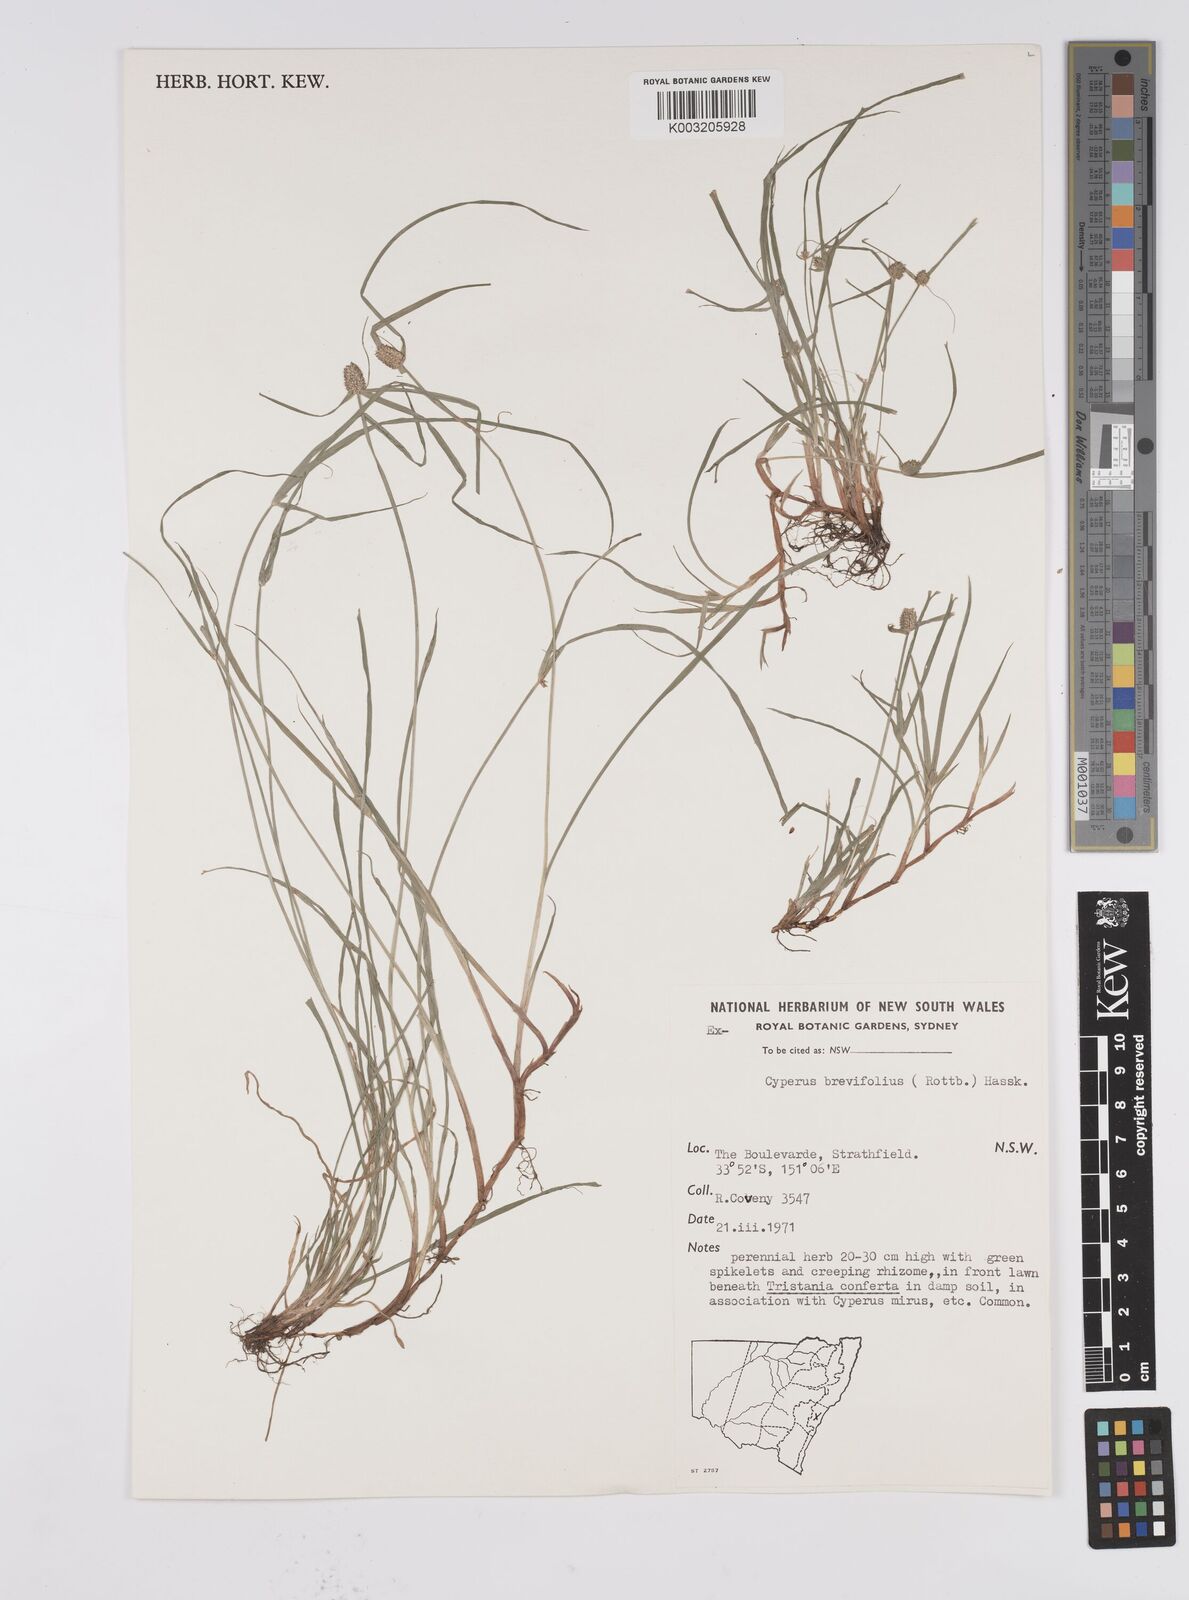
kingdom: Plantae
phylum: Tracheophyta
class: Liliopsida
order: Poales
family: Cyperaceae
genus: Cyperus
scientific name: Cyperus brevifolius
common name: Globe kyllinga
